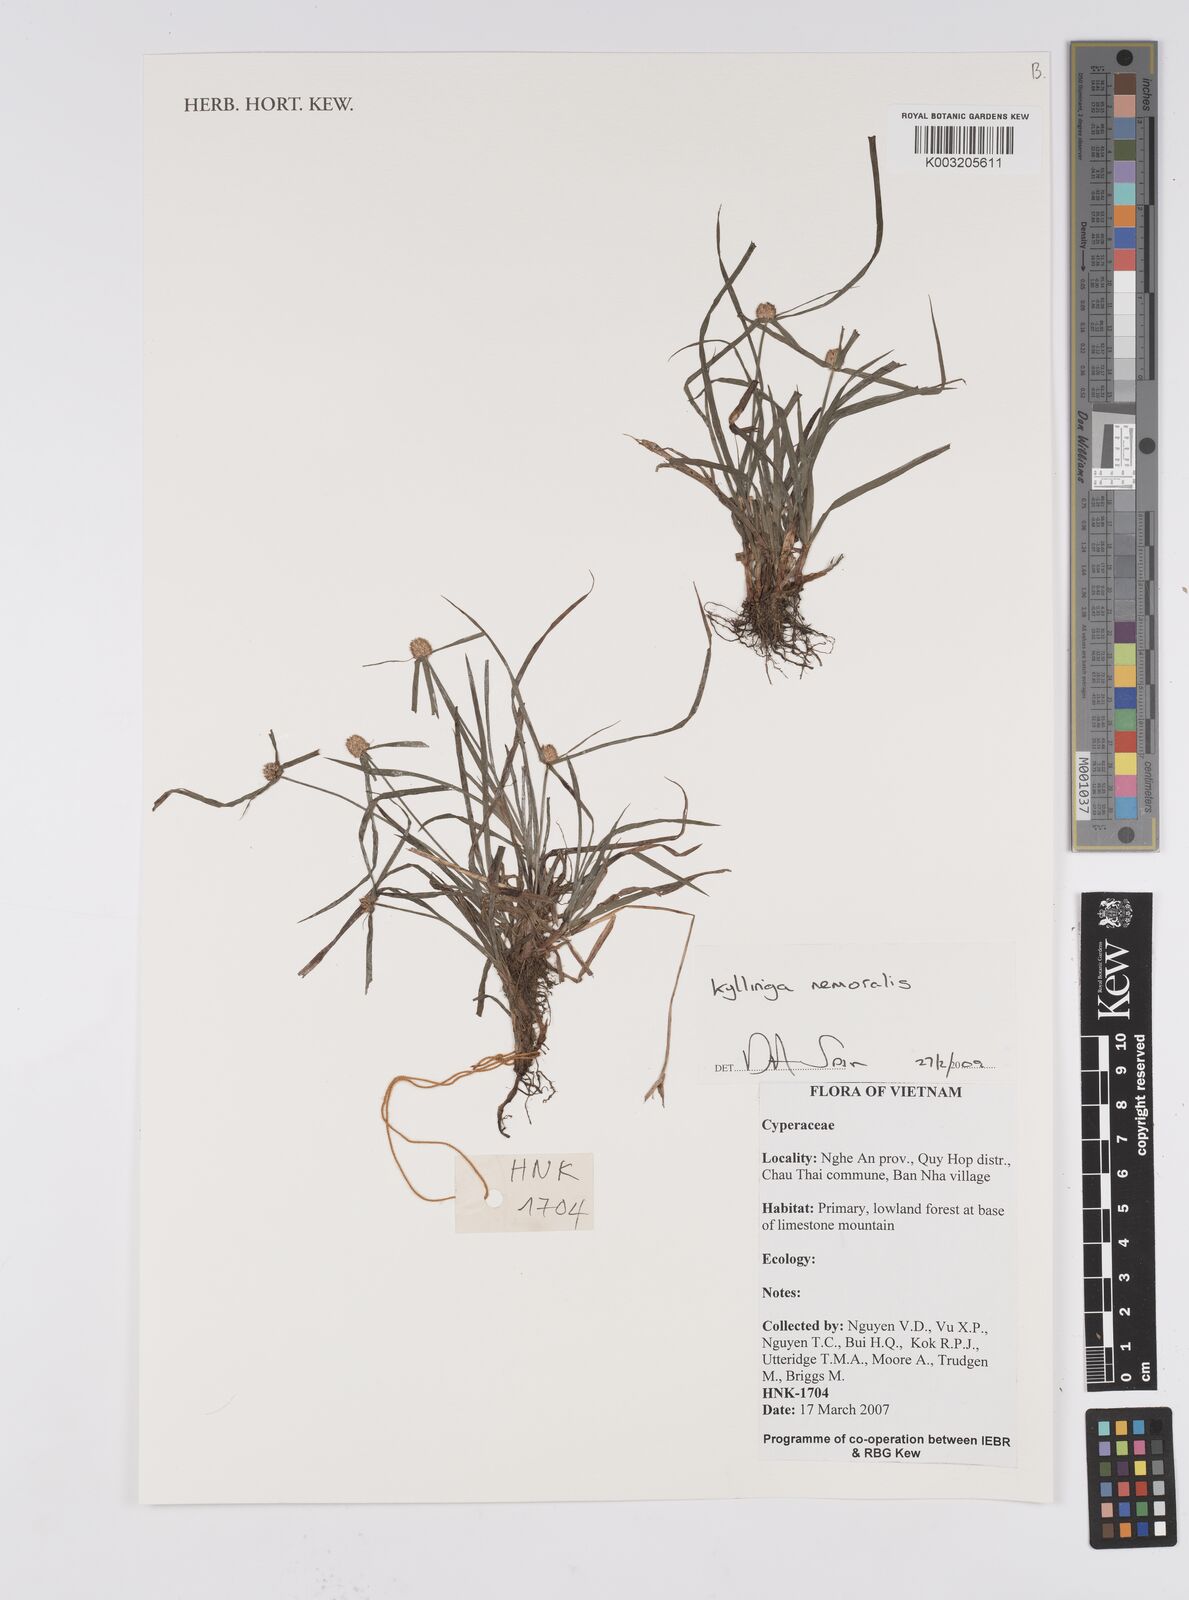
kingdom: Plantae
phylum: Tracheophyta
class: Liliopsida
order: Poales
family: Cyperaceae
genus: Cyperus
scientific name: Cyperus
